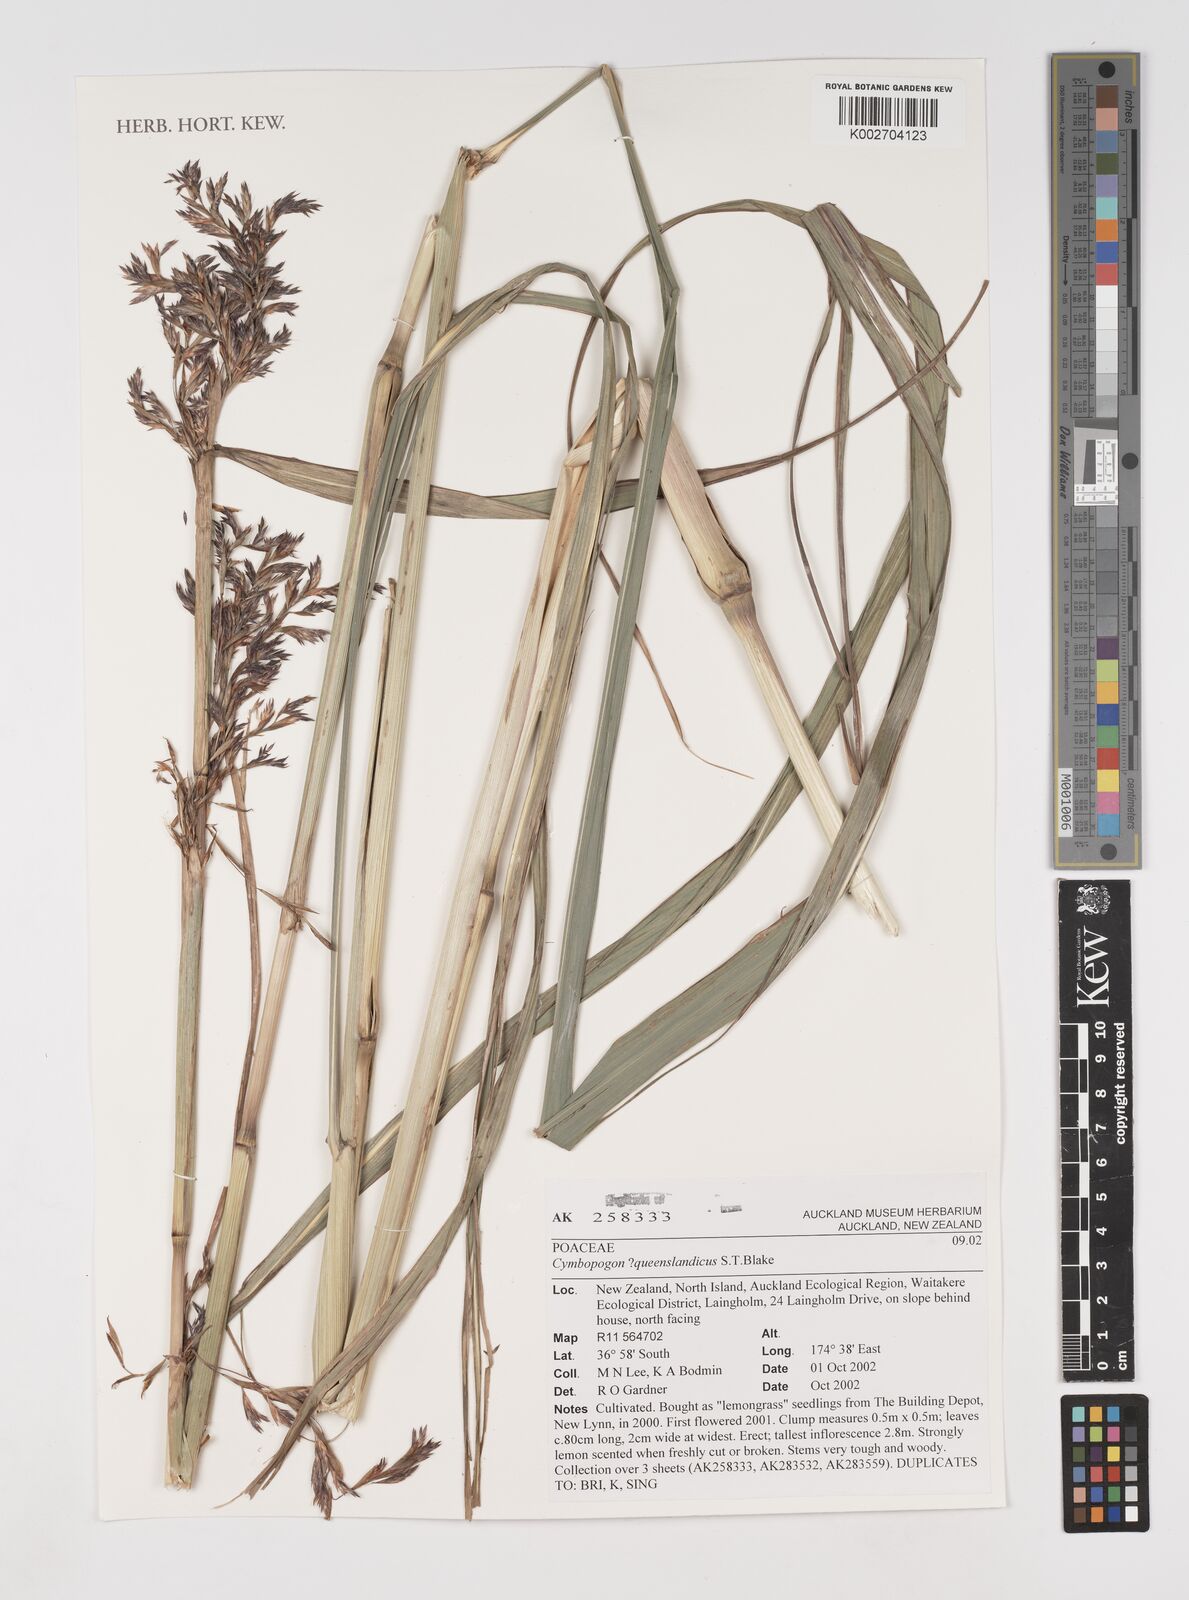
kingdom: Plantae
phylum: Tracheophyta
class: Liliopsida
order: Poales
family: Poaceae
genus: Cymbopogon
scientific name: Cymbopogon queenslandicus
